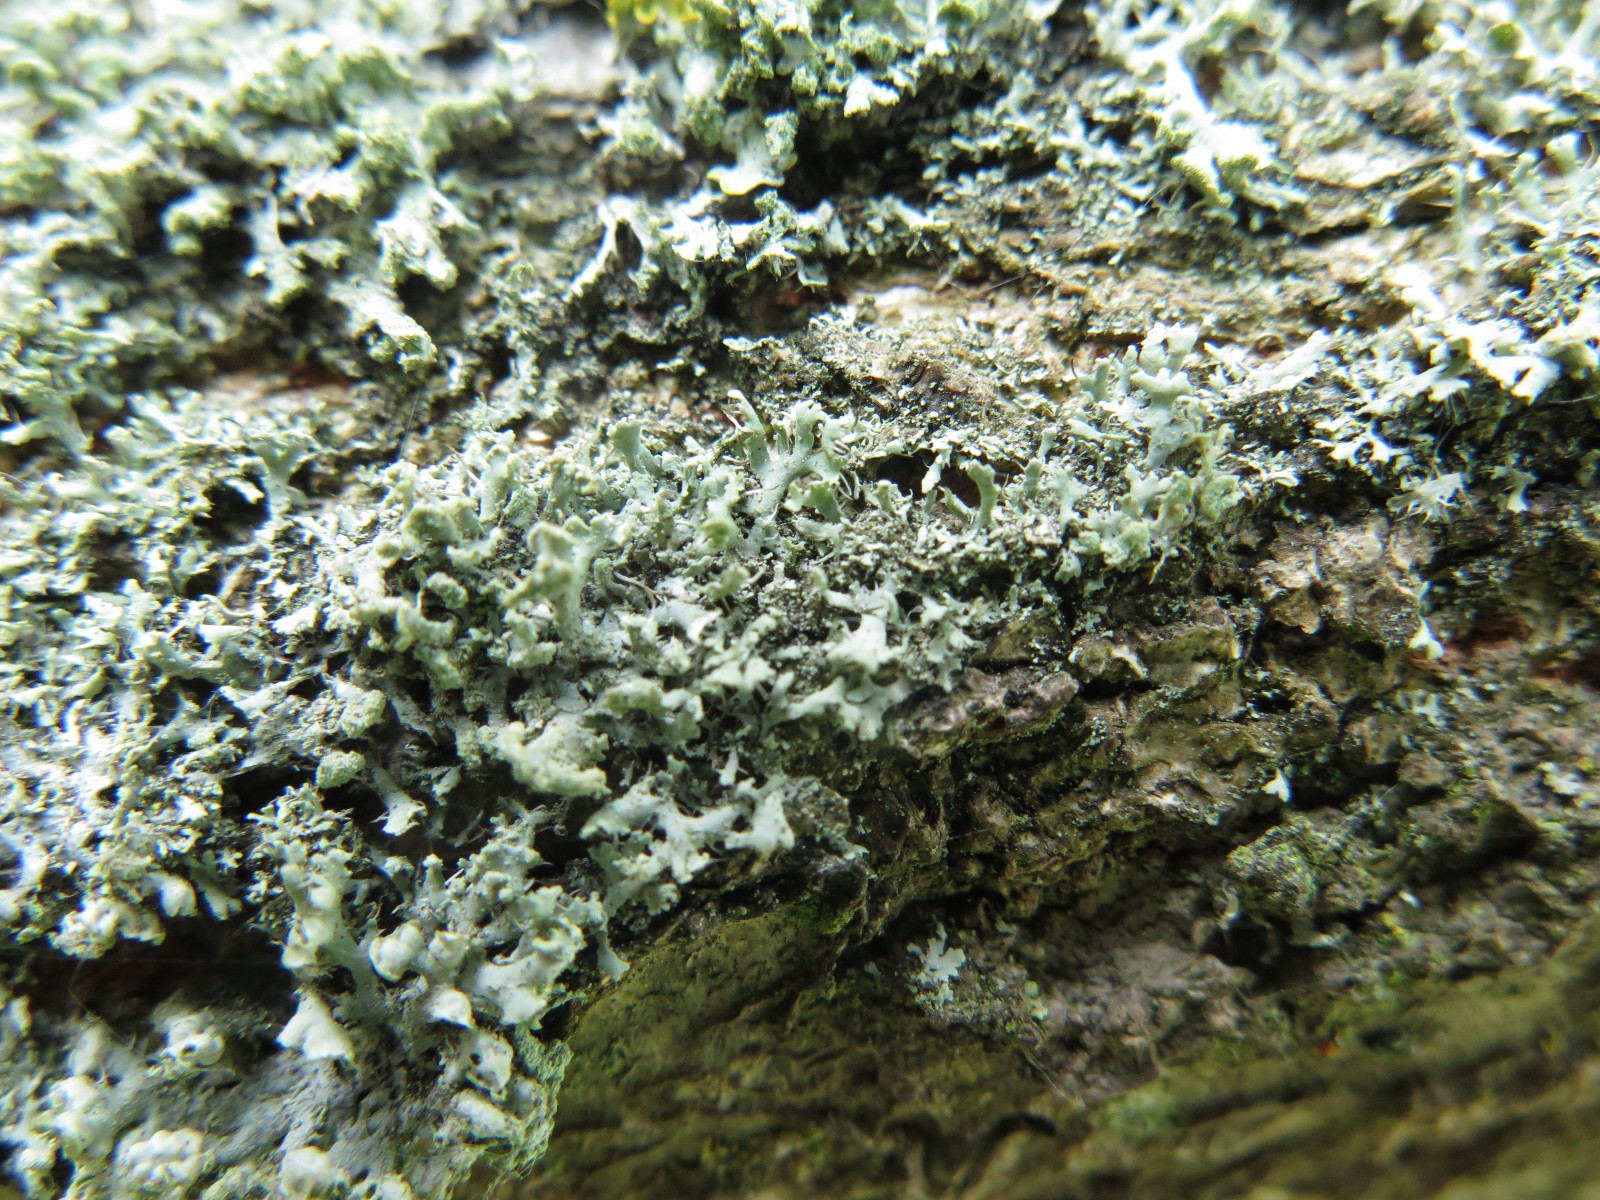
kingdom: Fungi
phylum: Ascomycota
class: Lecanoromycetes
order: Caliciales
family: Physciaceae
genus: Physcia
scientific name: Physcia tenella
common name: spæd rosetlav
